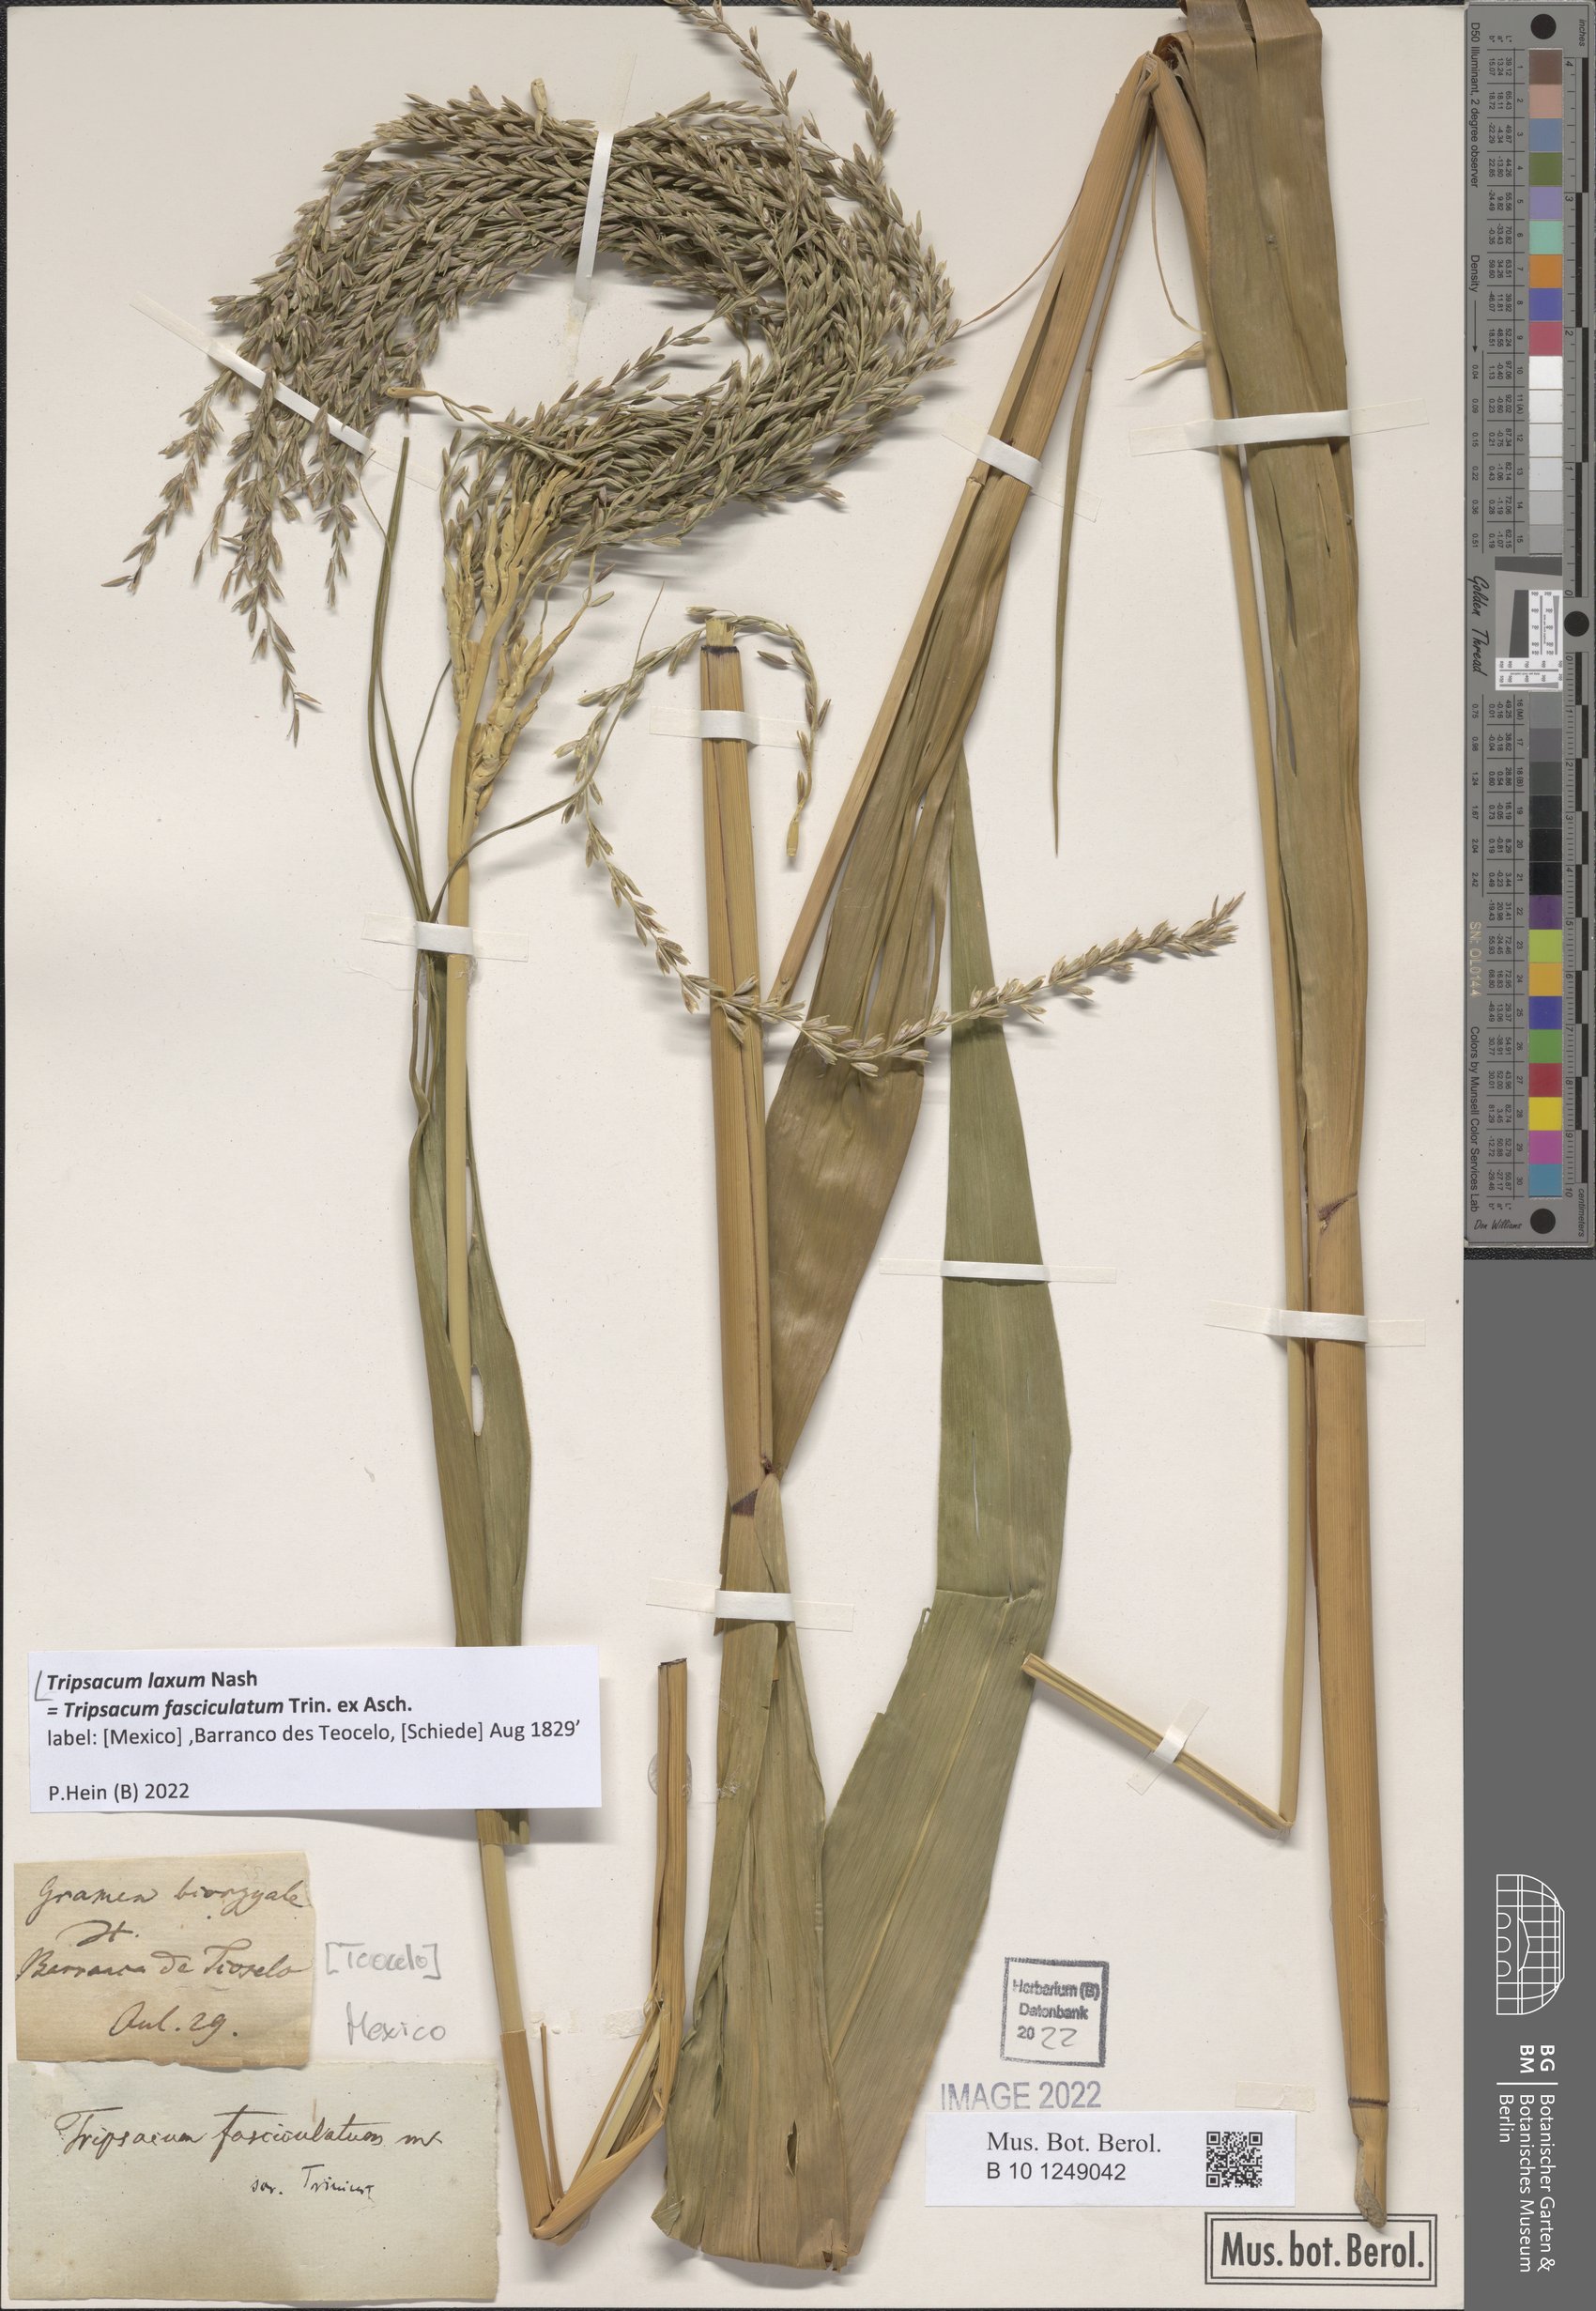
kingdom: Plantae
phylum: Tracheophyta
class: Liliopsida
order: Poales
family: Poaceae
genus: Tripsacum
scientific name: Tripsacum laxum
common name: Grama-guatemala
